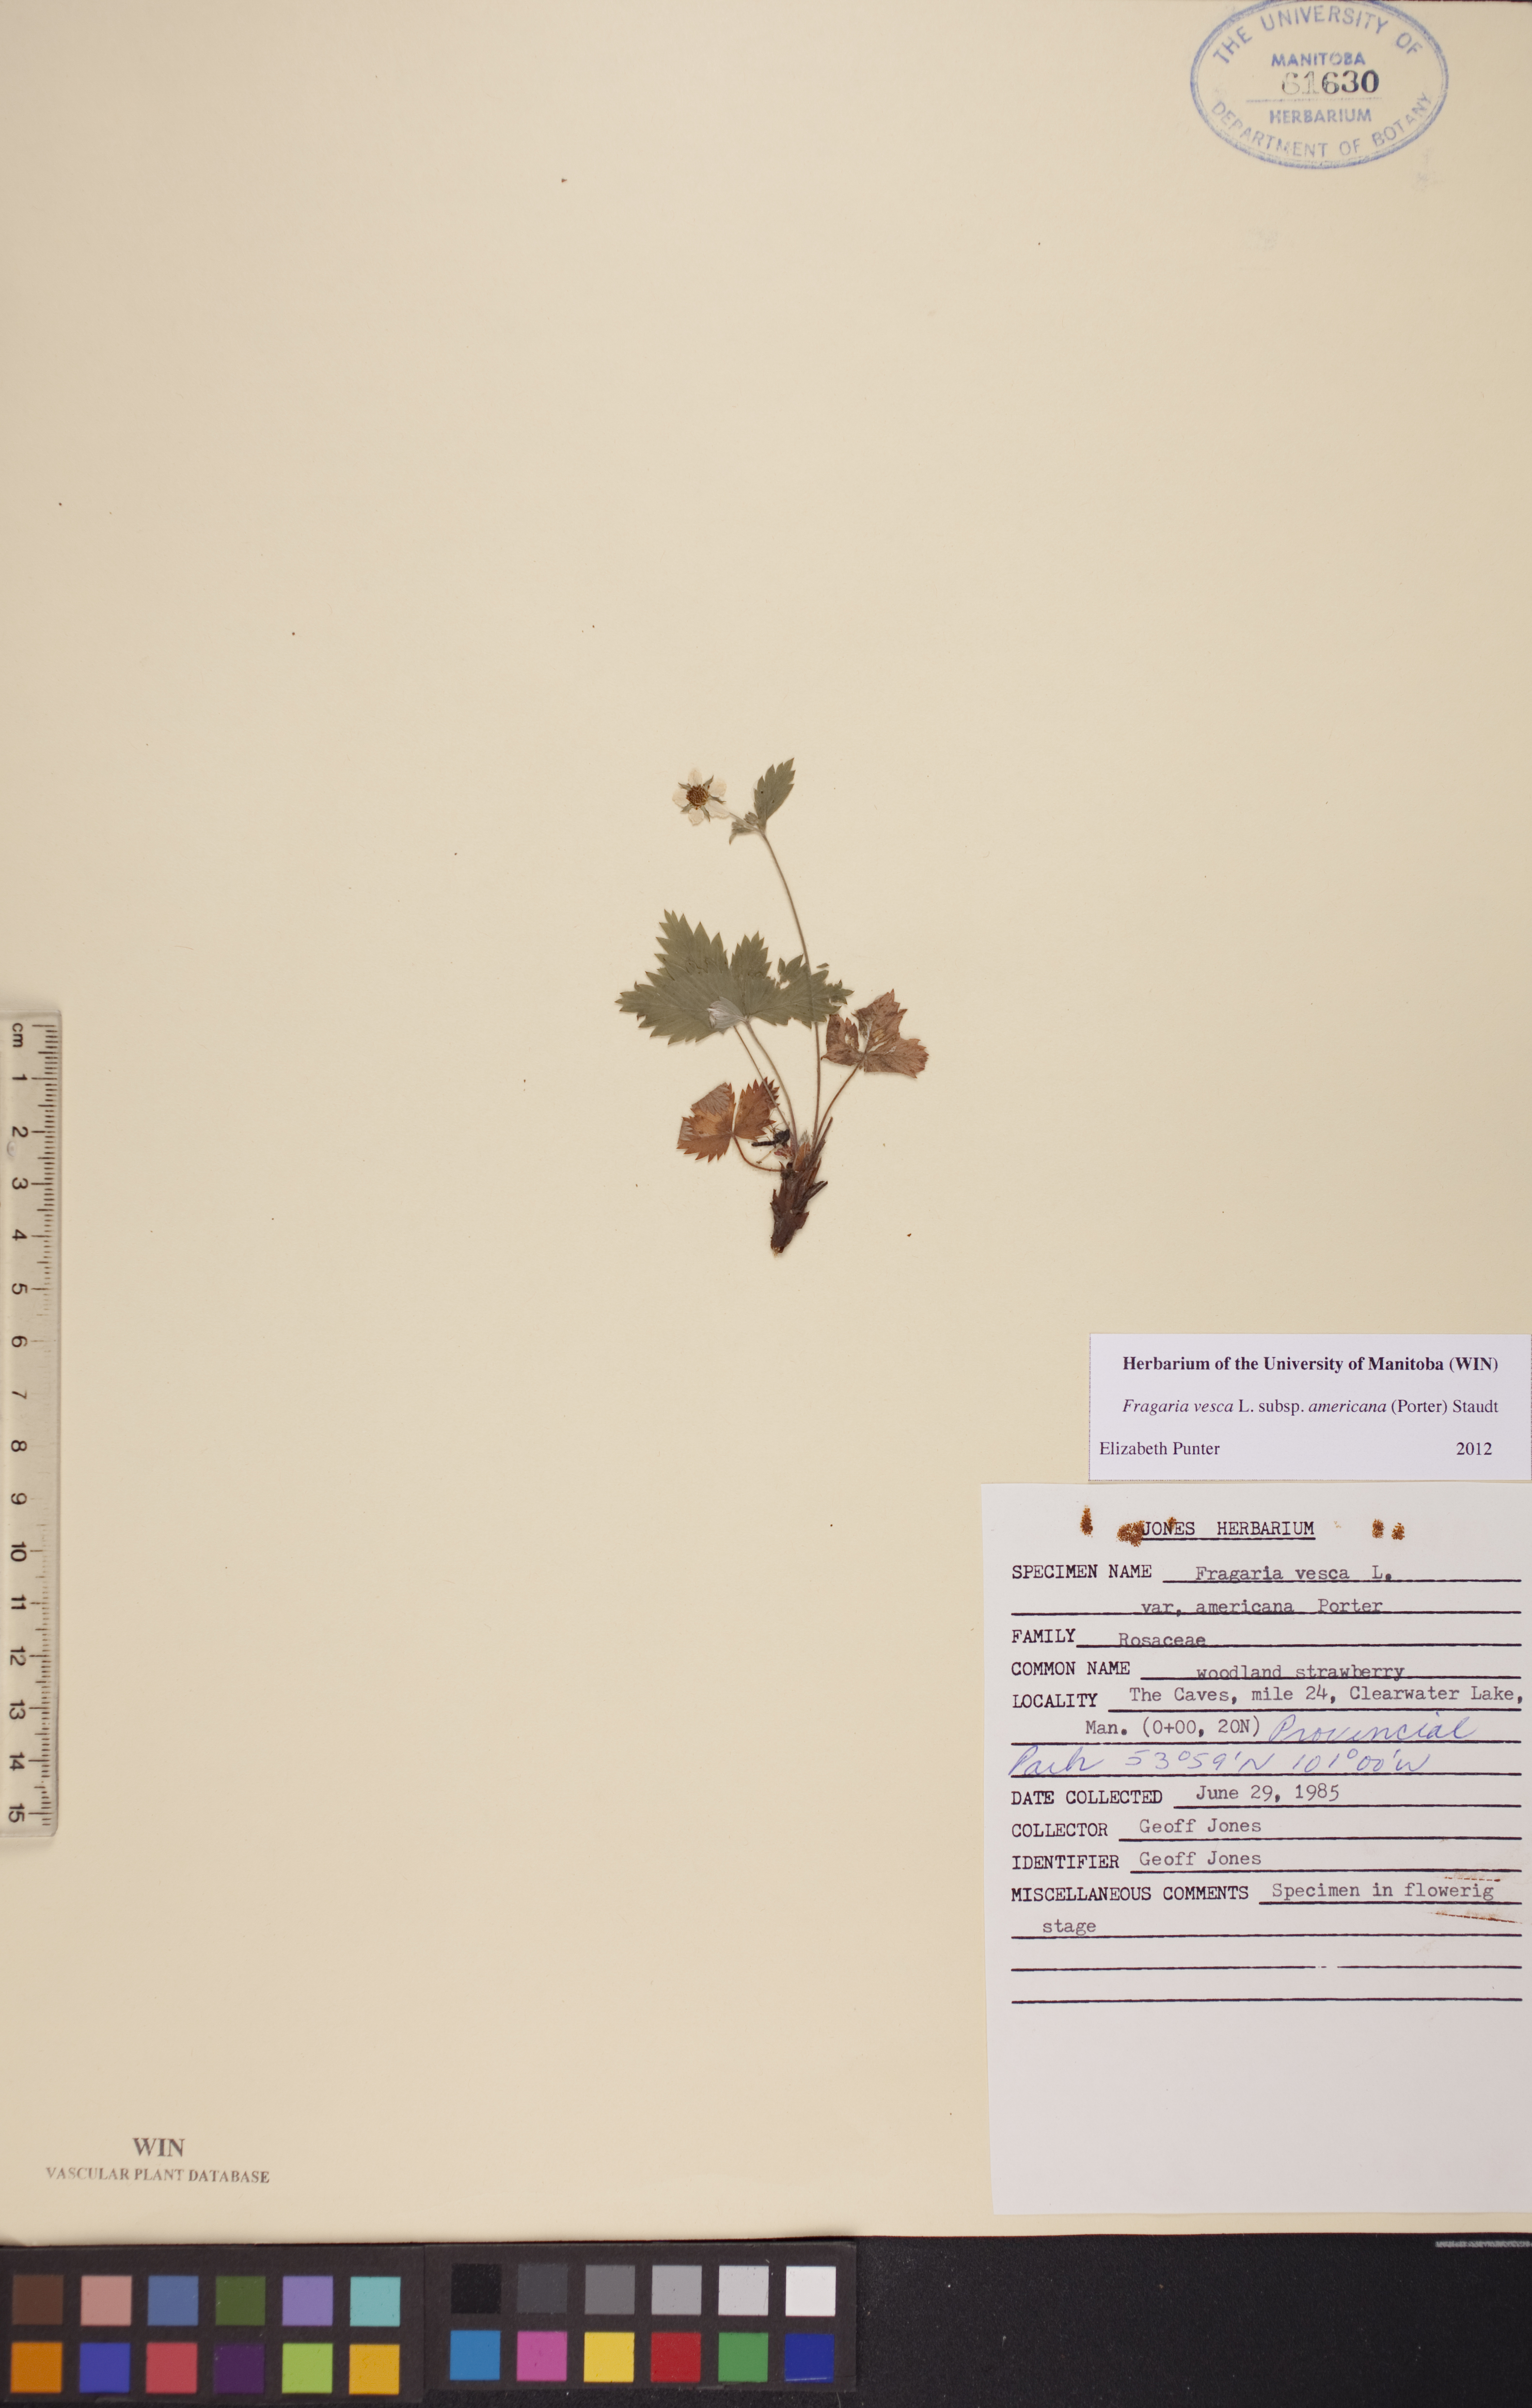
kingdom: Plantae
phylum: Tracheophyta
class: Magnoliopsida
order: Rosales
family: Rosaceae
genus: Fragaria
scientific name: Fragaria vesca
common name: Wild strawberry
